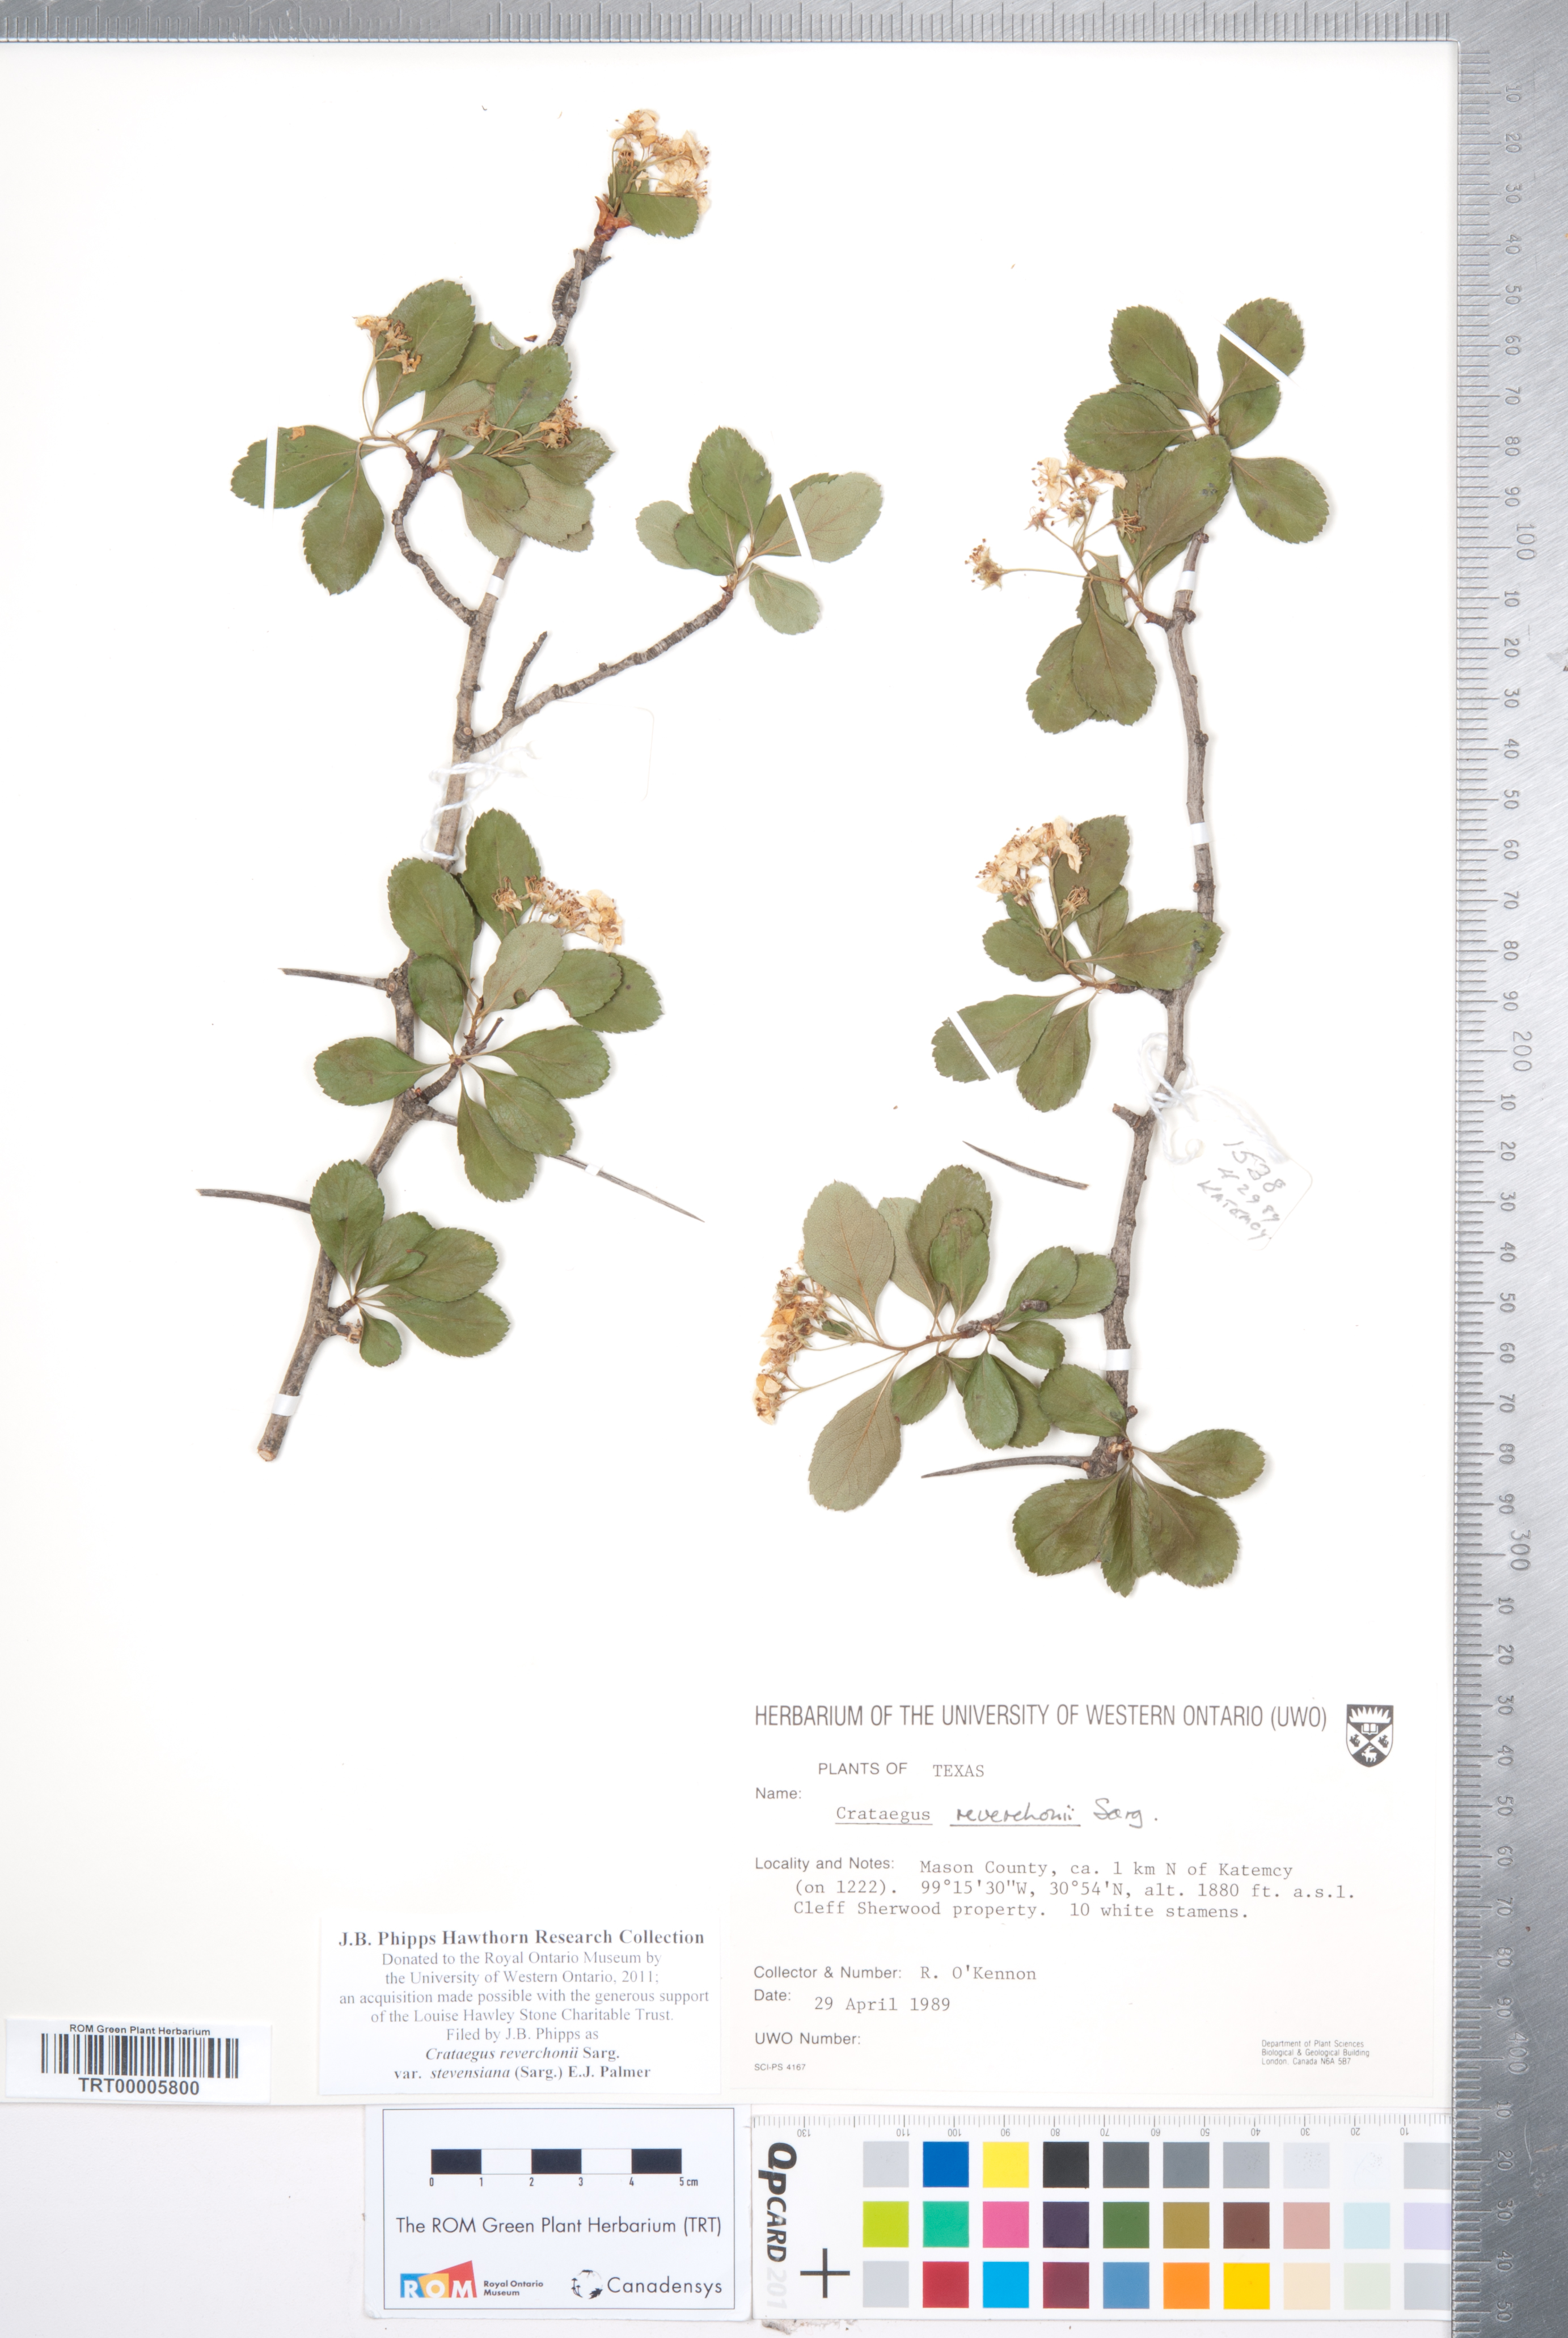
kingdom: Plantae
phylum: Tracheophyta
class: Magnoliopsida
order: Rosales
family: Rosaceae
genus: Crataegus
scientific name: Crataegus reverchonii
